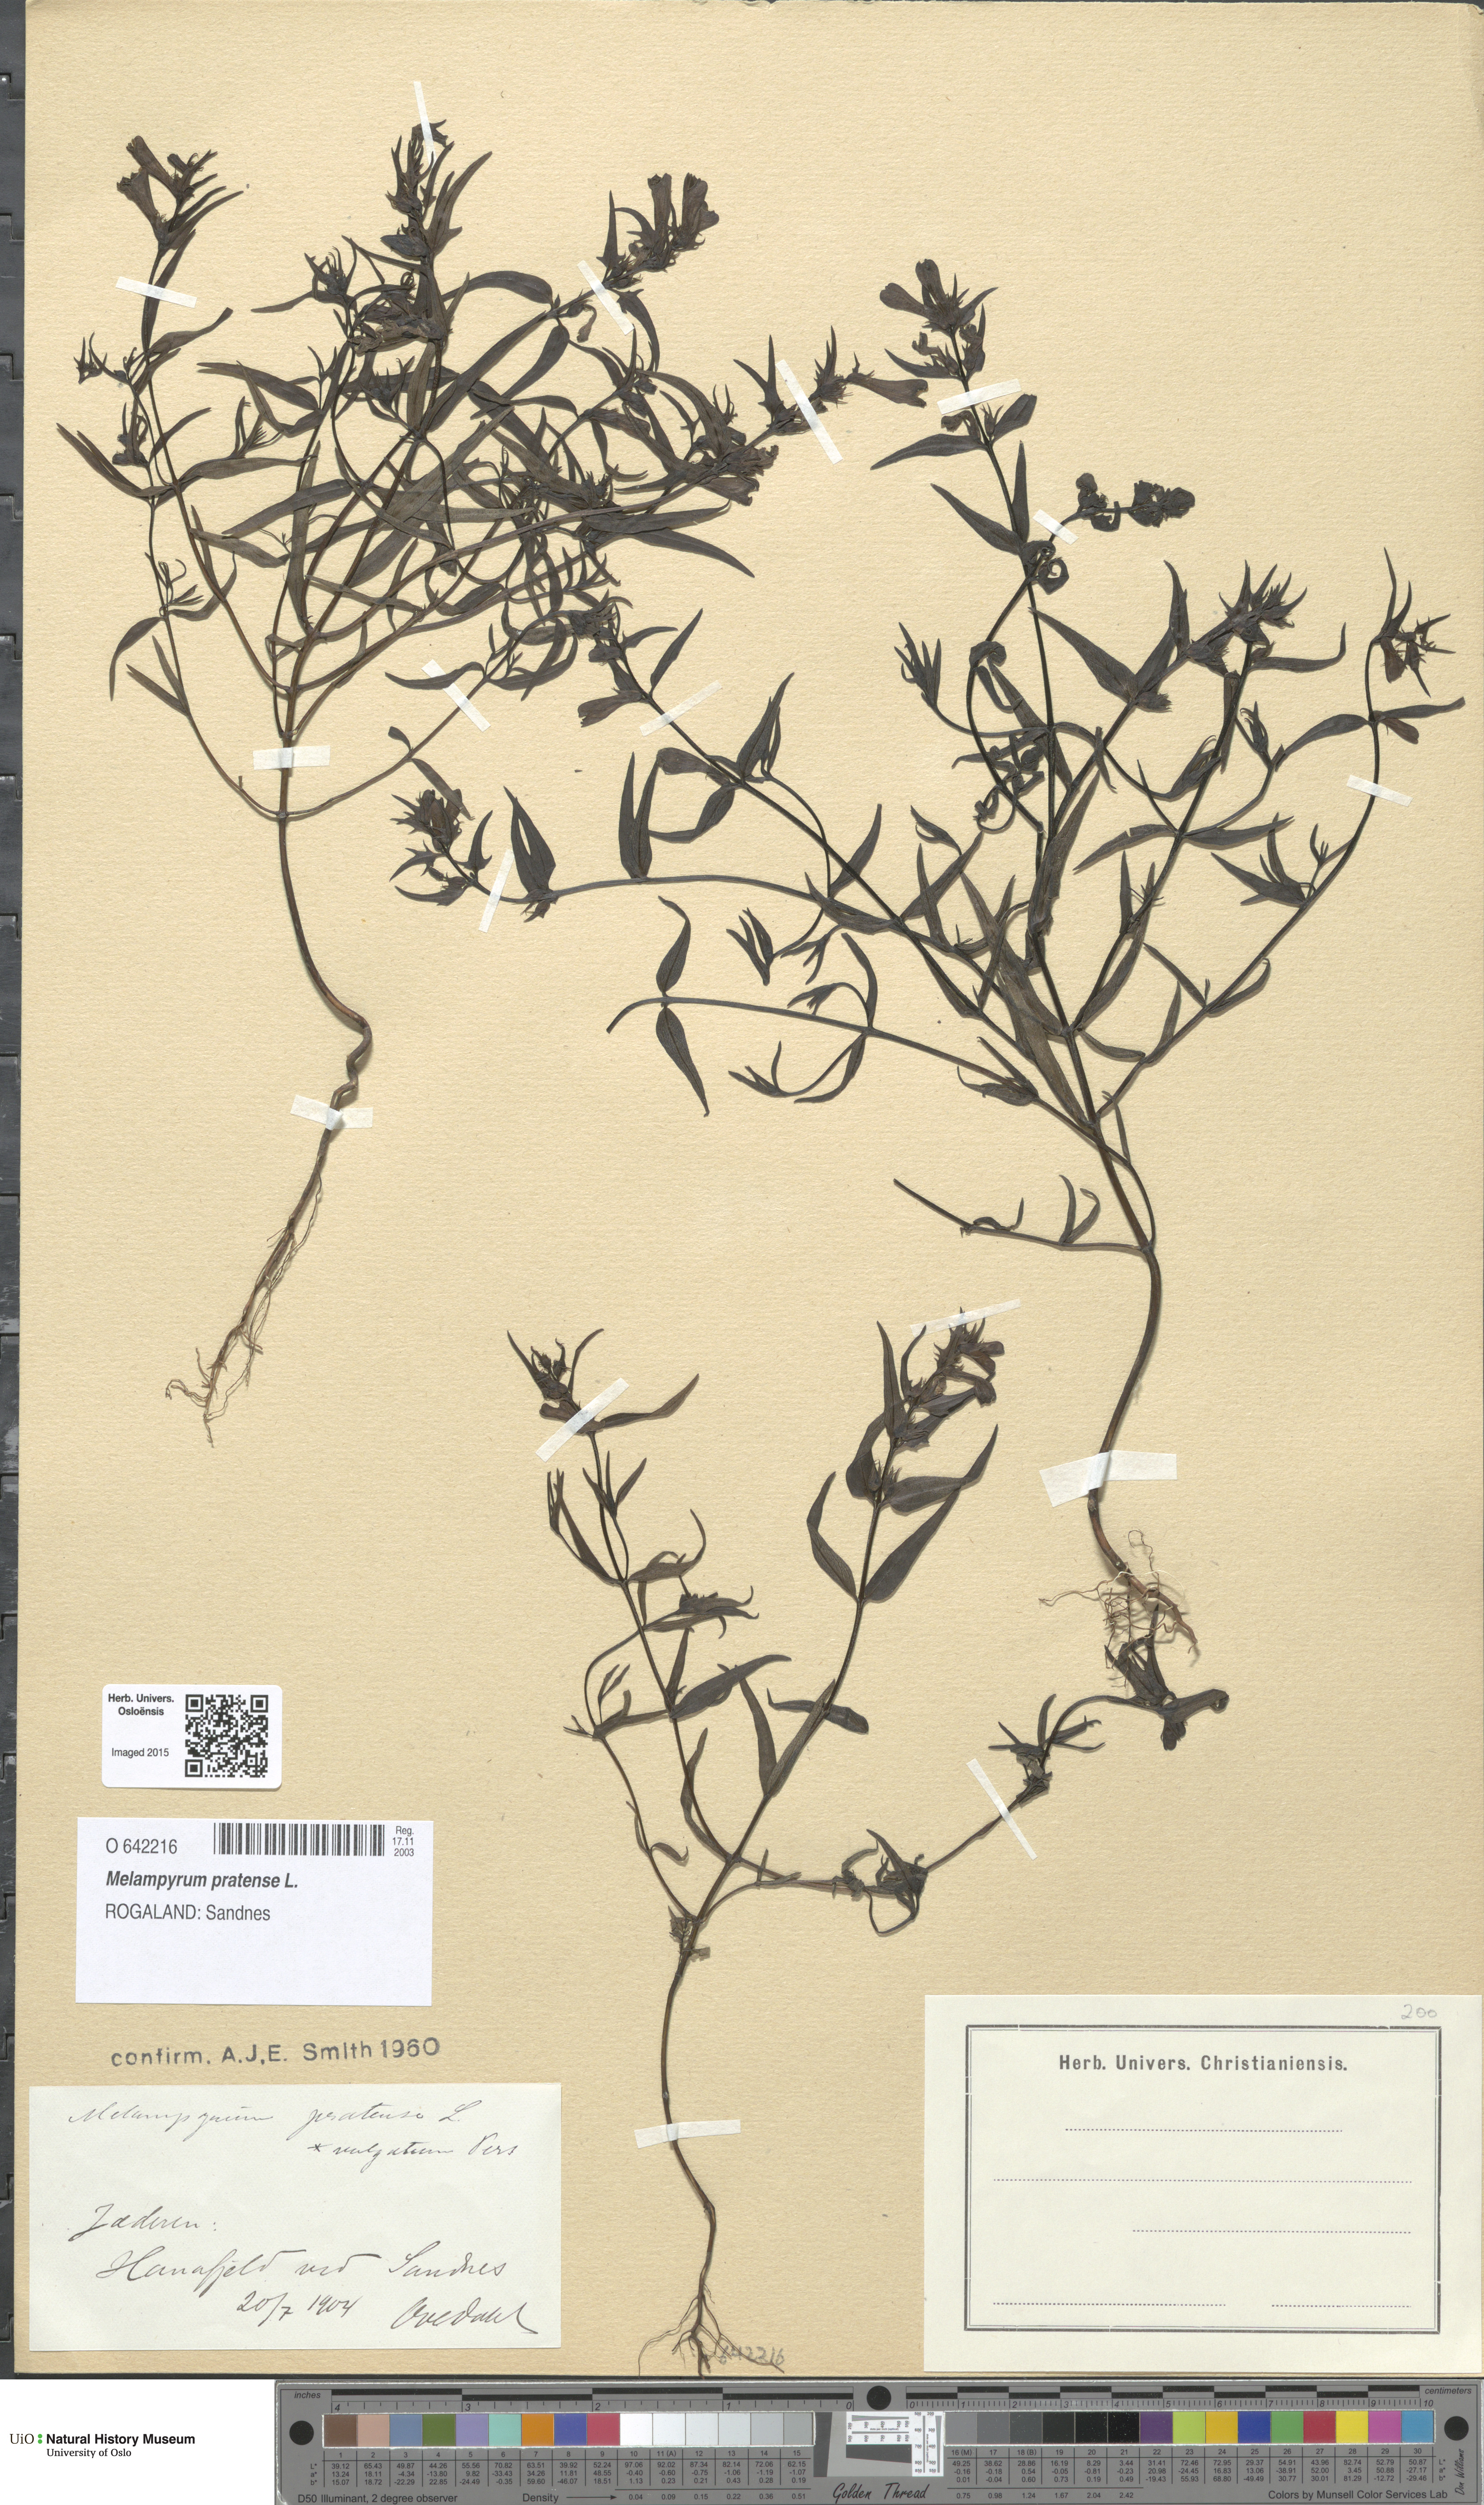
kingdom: Plantae
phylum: Tracheophyta
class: Magnoliopsida
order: Lamiales
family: Orobanchaceae
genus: Melampyrum
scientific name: Melampyrum pratense
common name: Common cow-wheat
